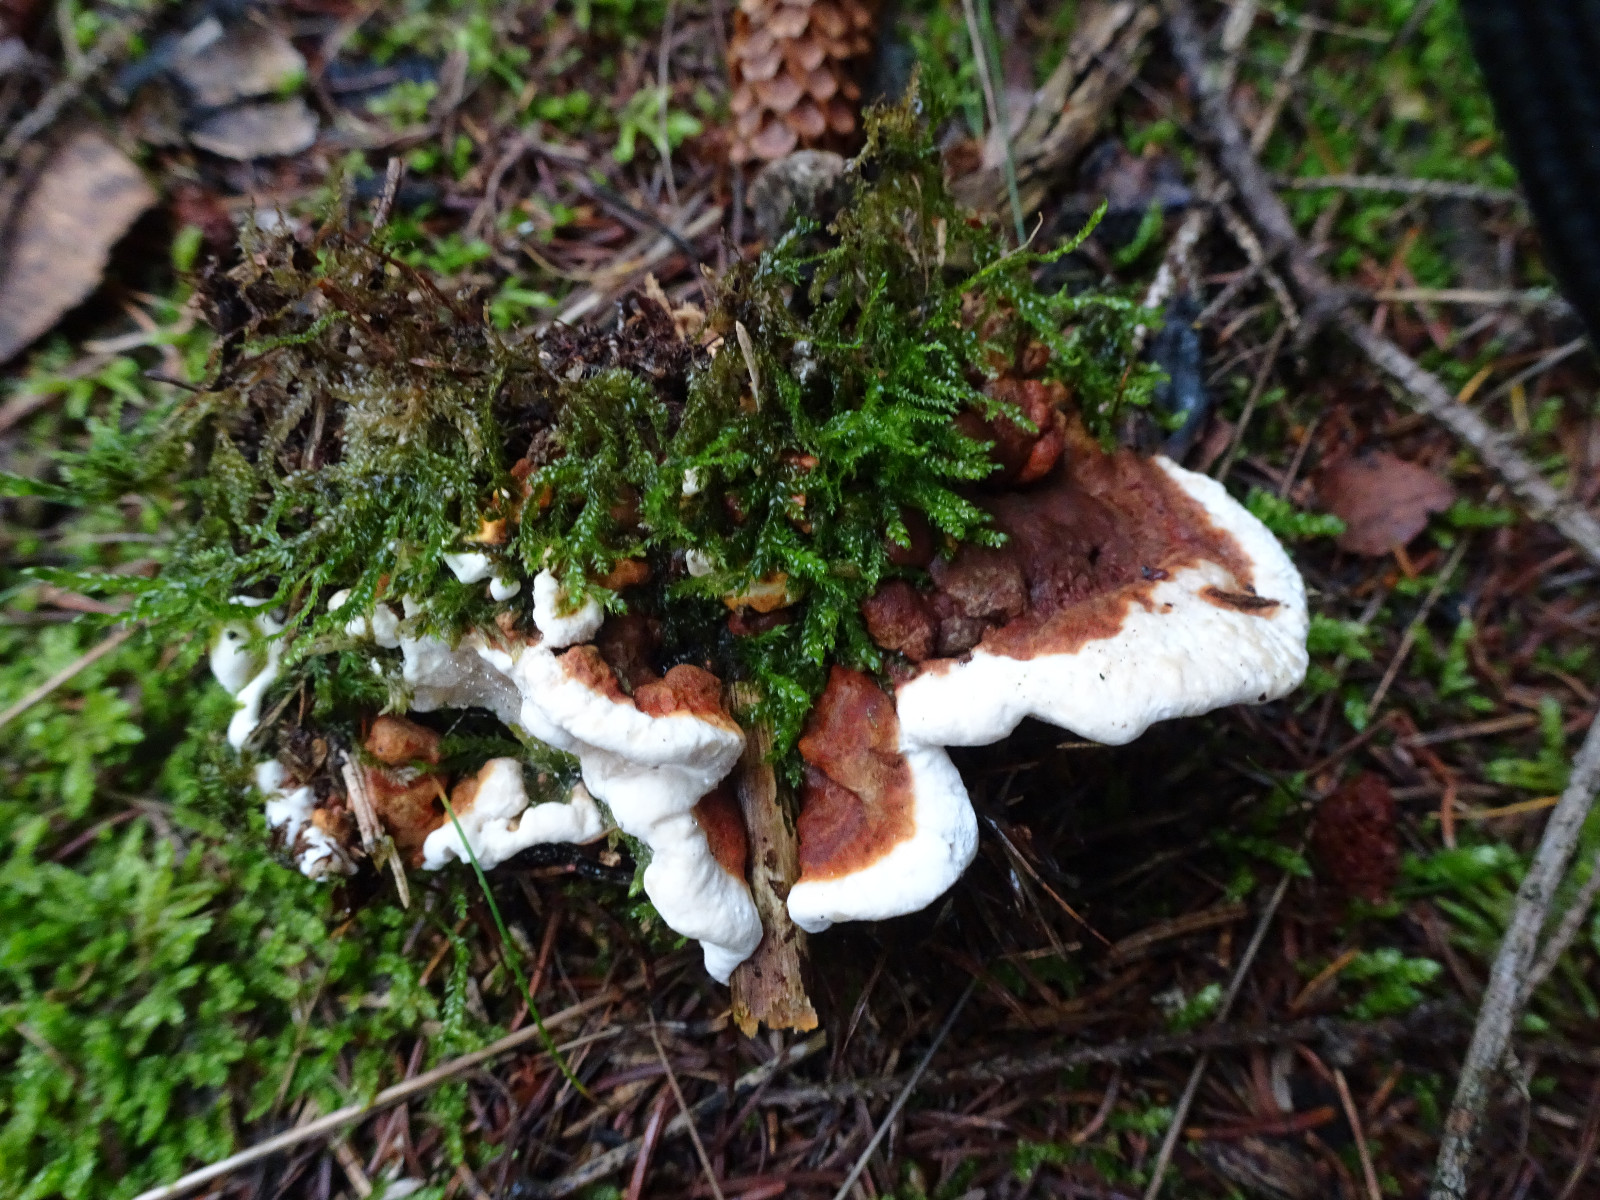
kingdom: Fungi
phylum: Basidiomycota
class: Agaricomycetes
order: Russulales
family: Bondarzewiaceae
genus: Heterobasidion
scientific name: Heterobasidion annosum
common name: almindelig rodfordærver
